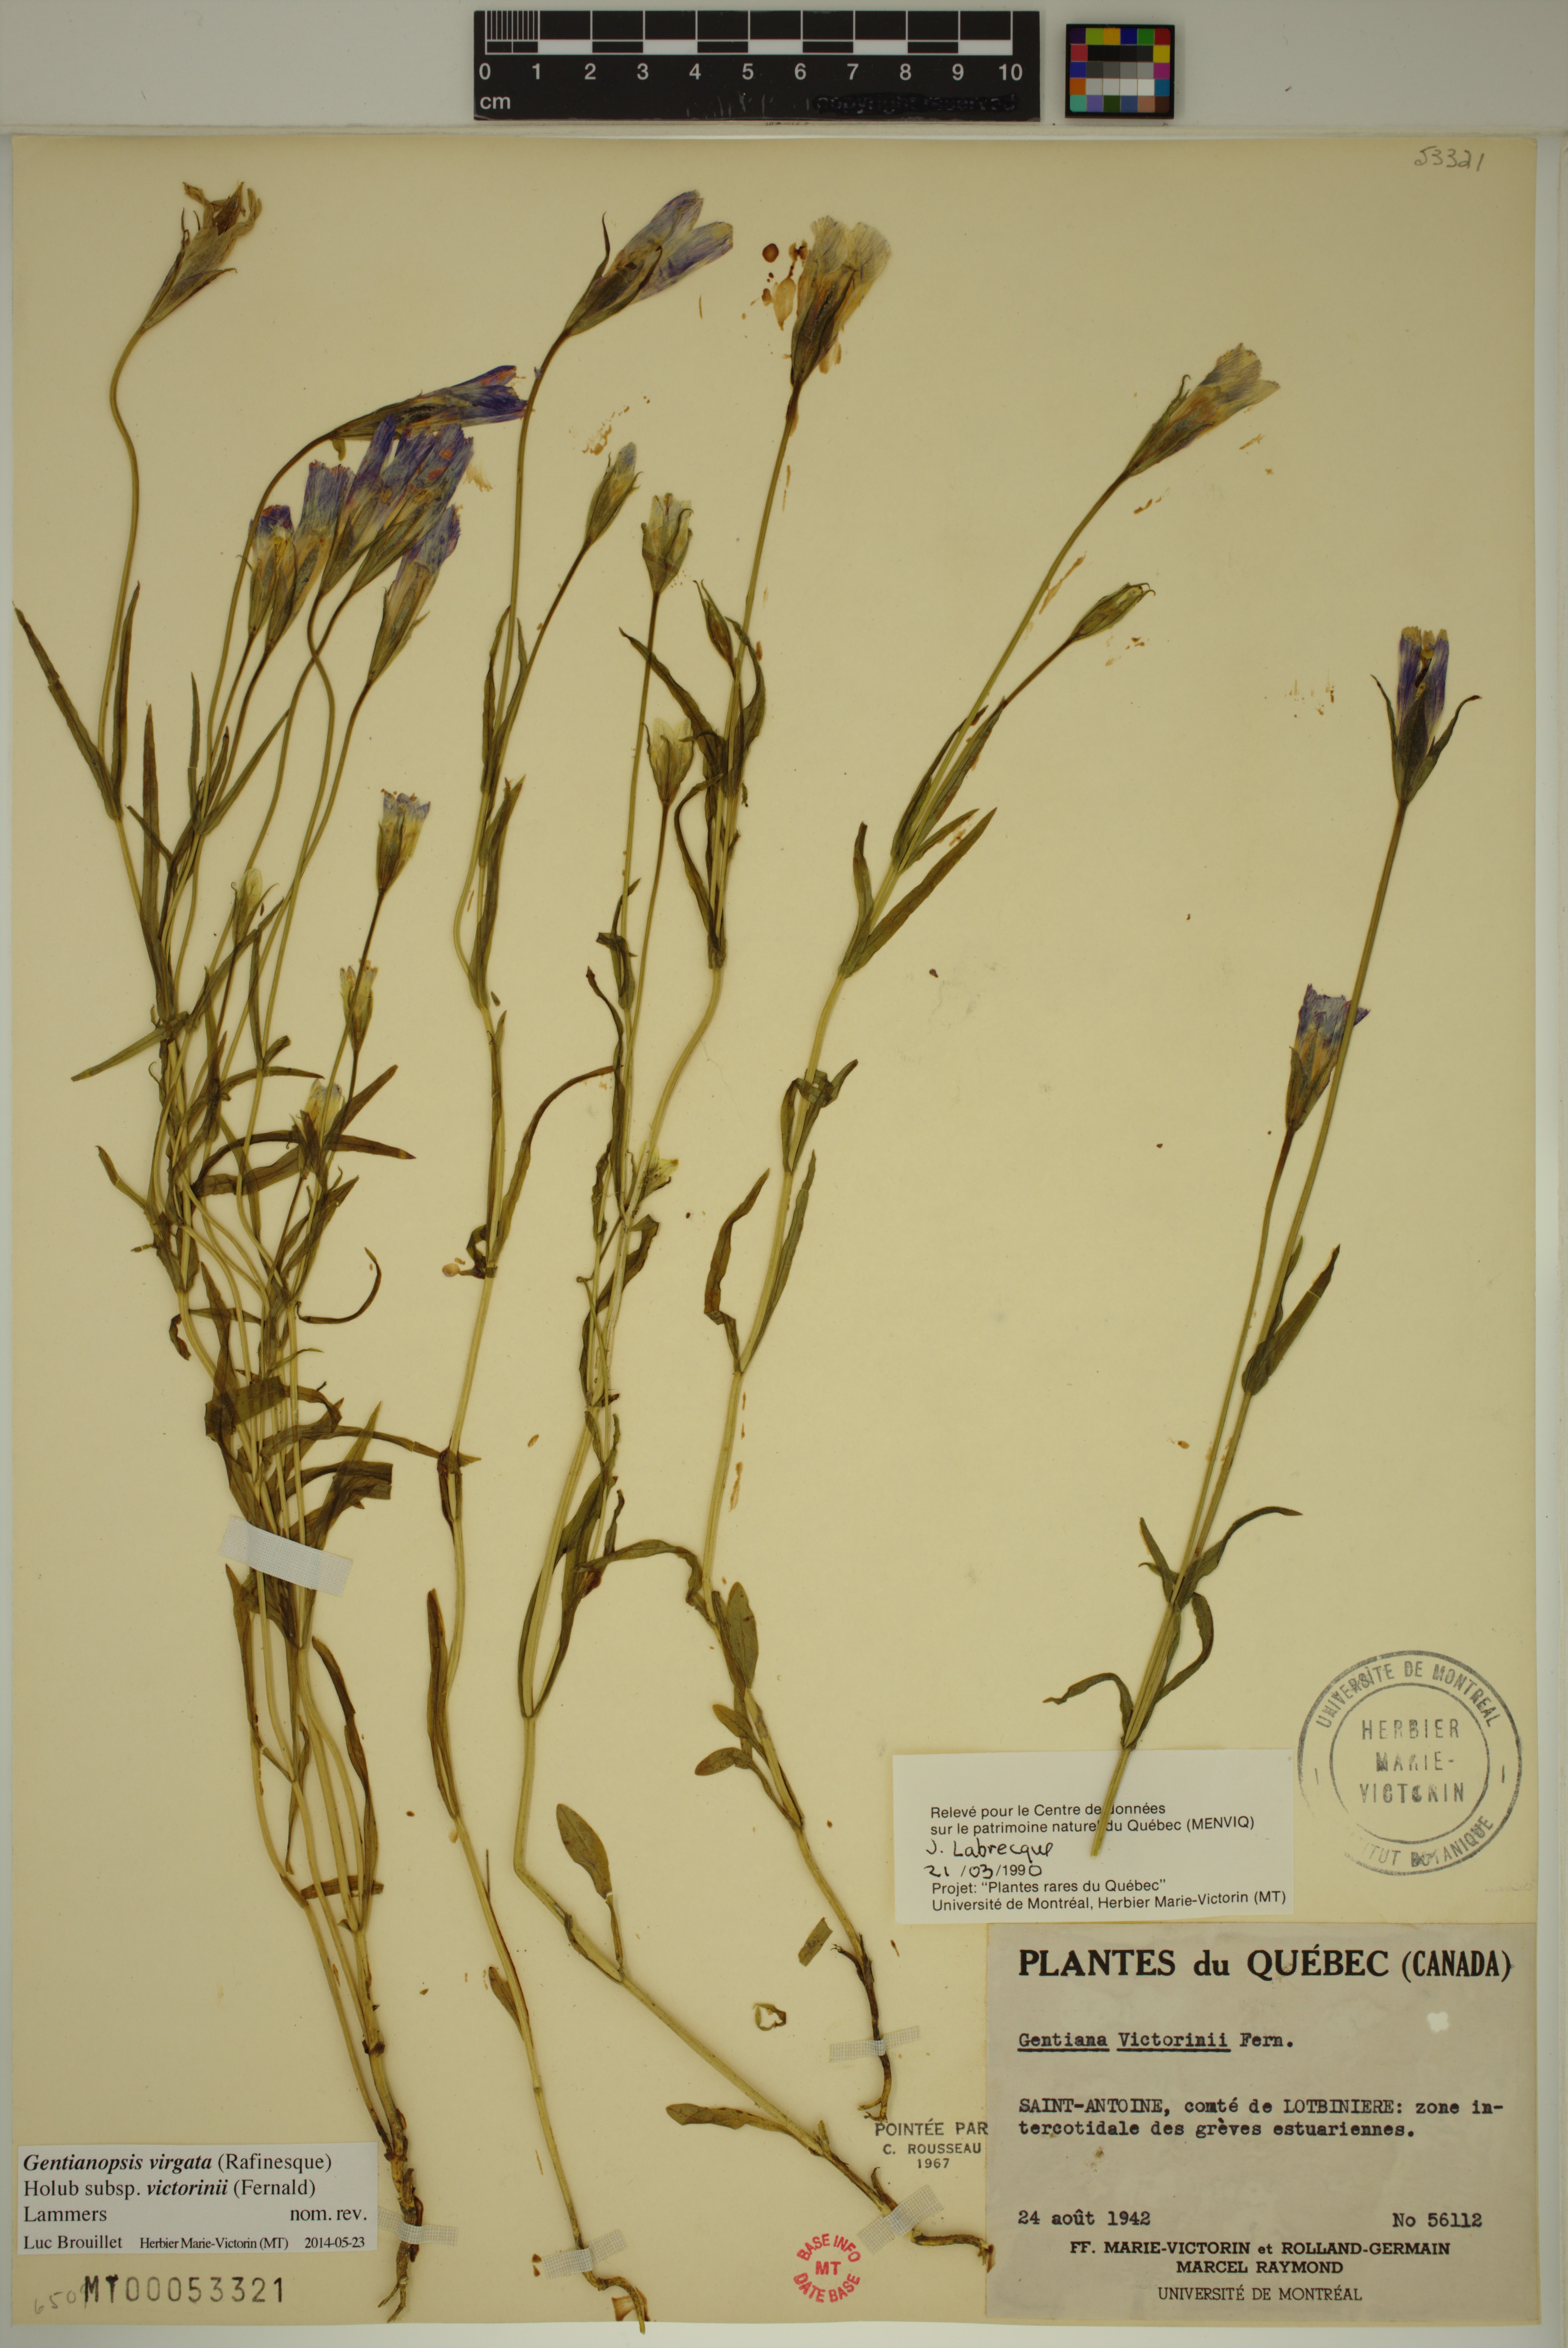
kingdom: Plantae
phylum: Tracheophyta
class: Magnoliopsida
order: Gentianales
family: Gentianaceae
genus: Gentianopsis
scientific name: Gentianopsis victorinii
